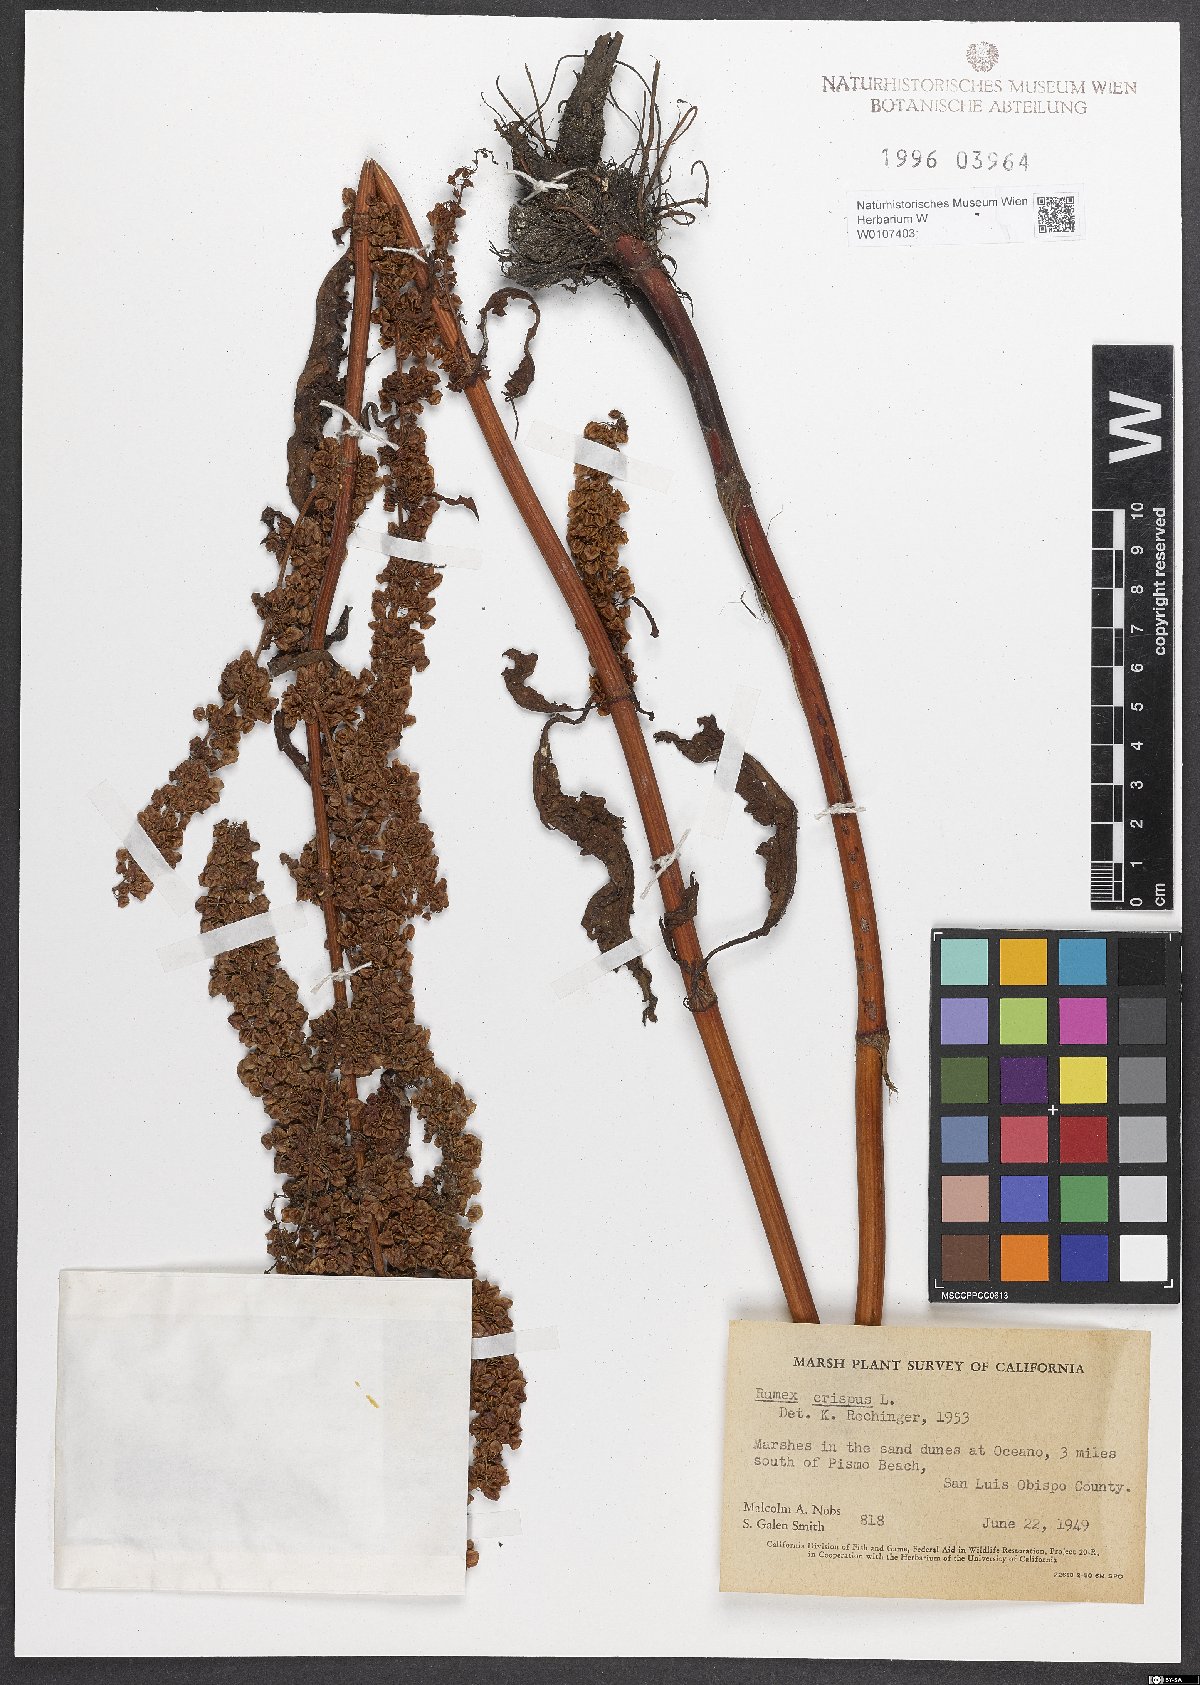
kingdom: Plantae
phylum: Tracheophyta
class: Magnoliopsida
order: Caryophyllales
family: Polygonaceae
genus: Rumex
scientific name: Rumex crispus
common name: Curled dock
